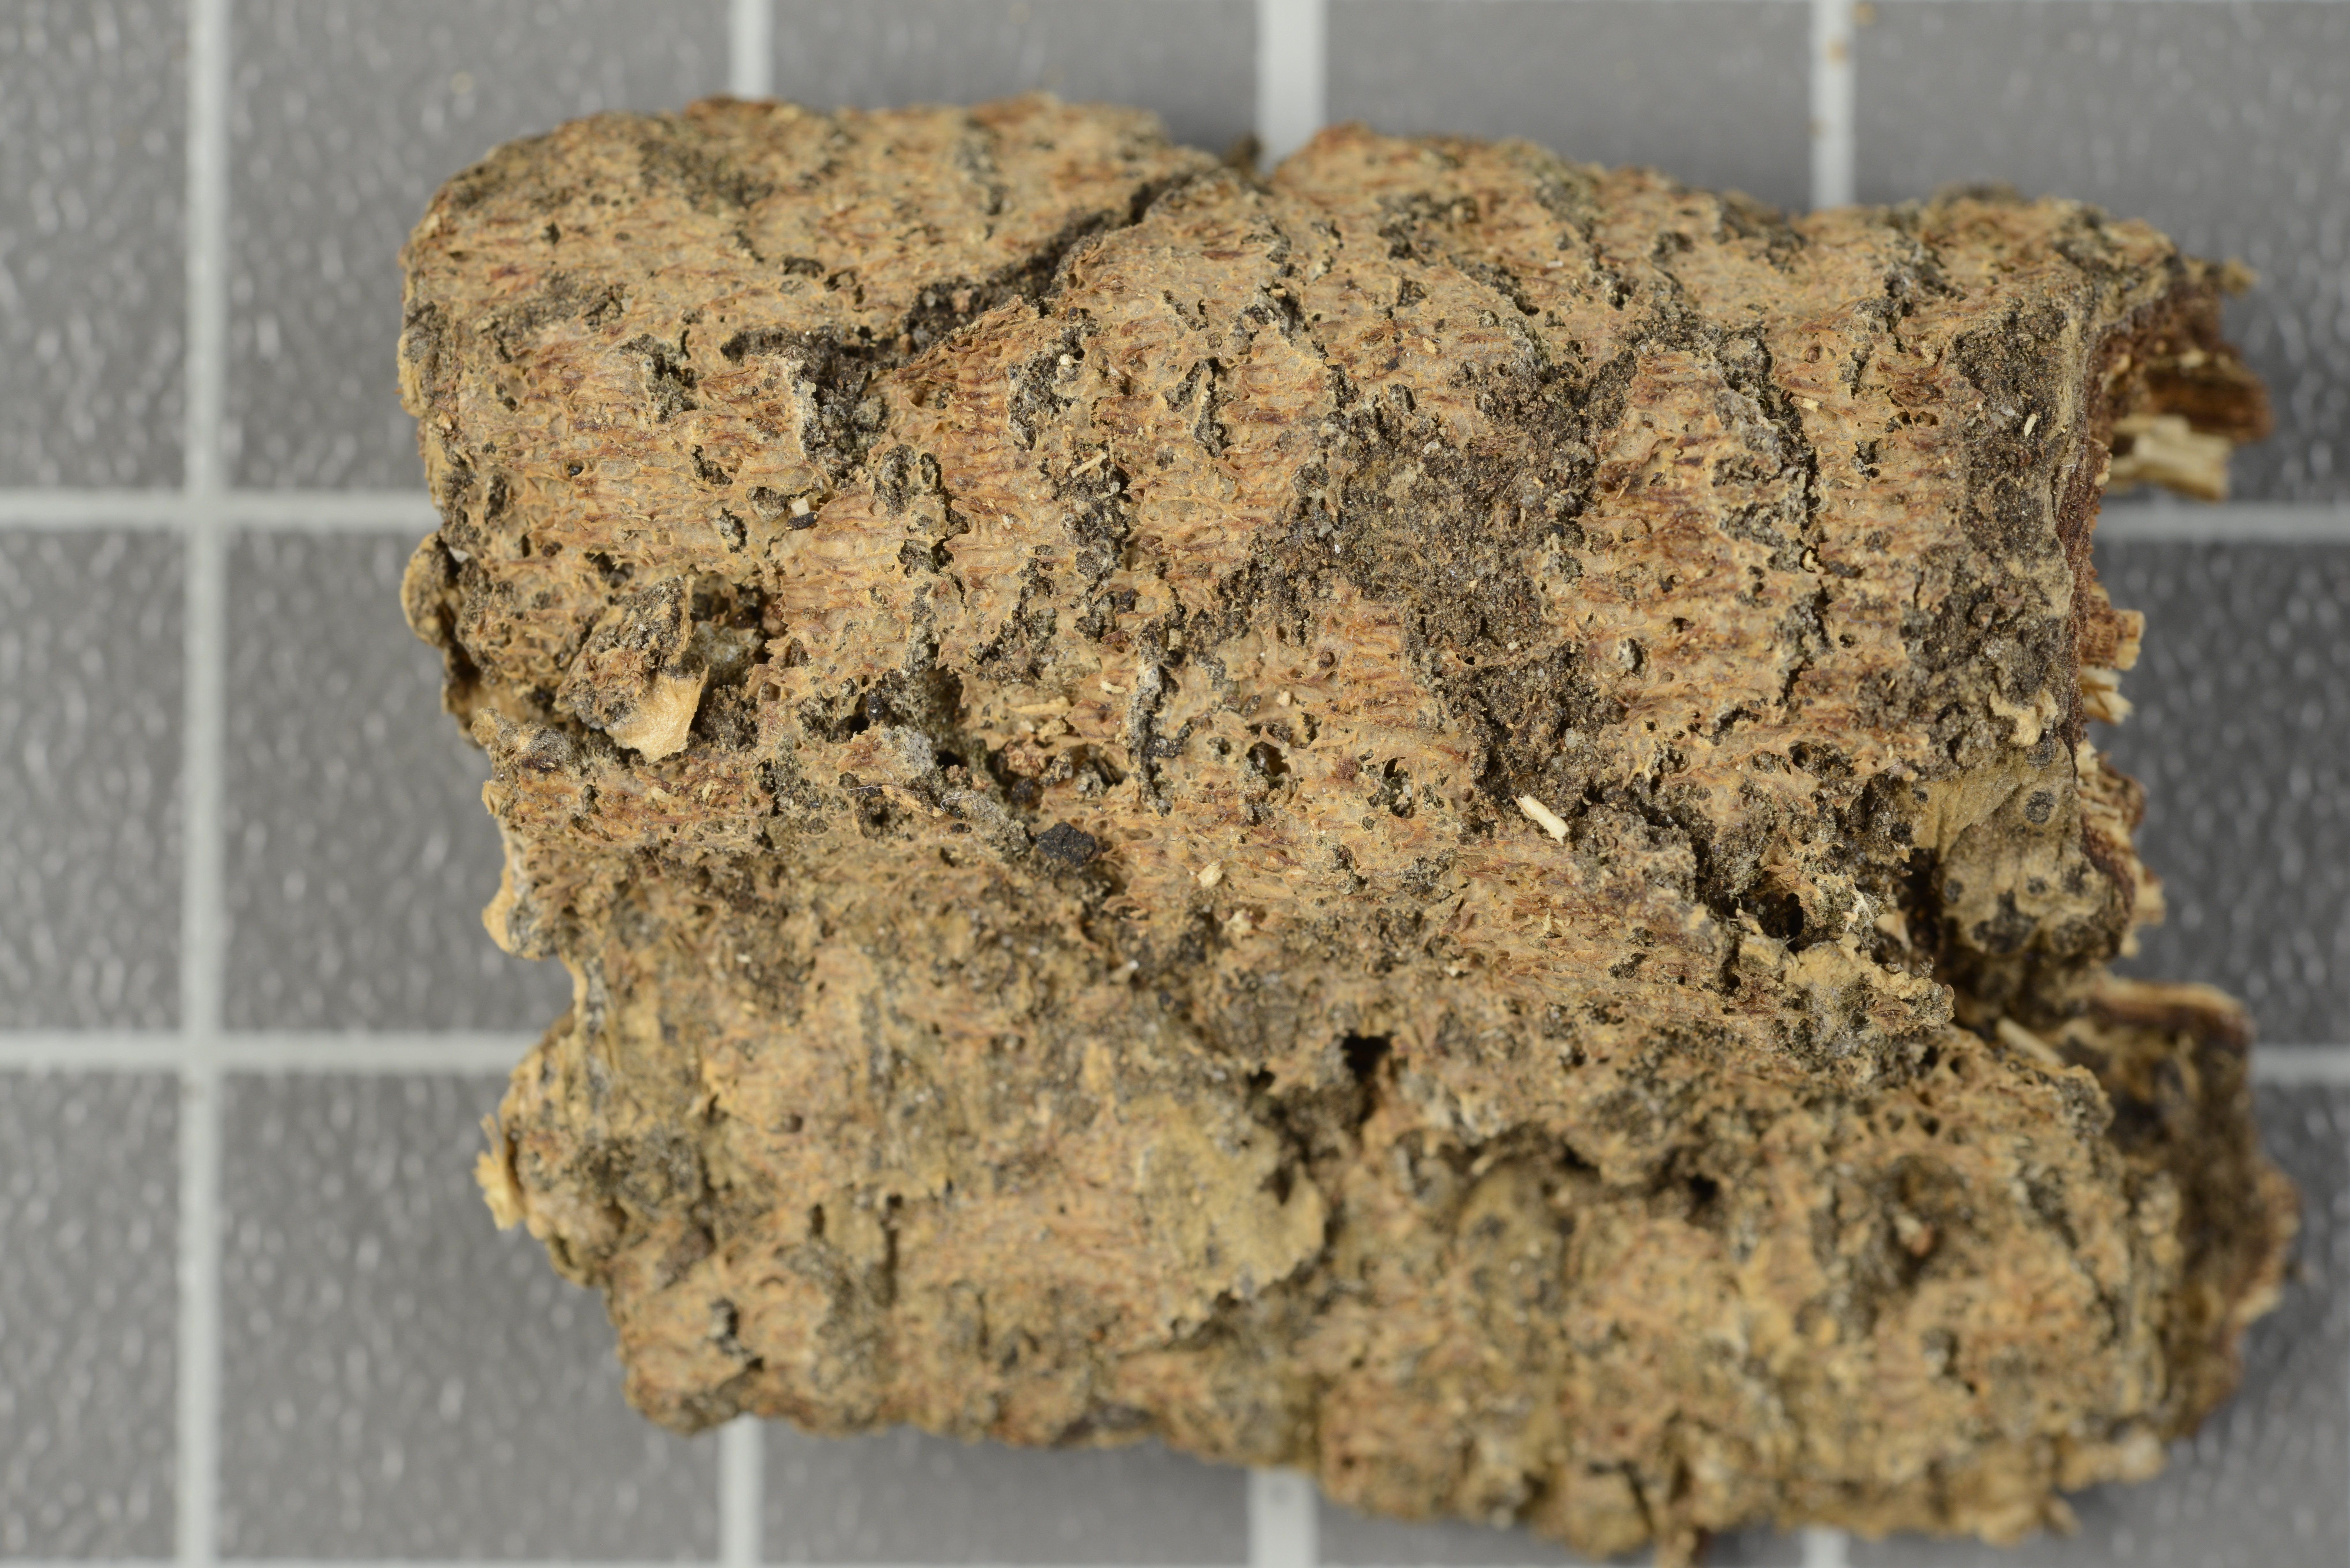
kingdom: Fungi
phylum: Basidiomycota
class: Agaricomycetes
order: Hymenochaetales
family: Oxyporaceae
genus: Oxyporus
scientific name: Oxyporus brunneus
